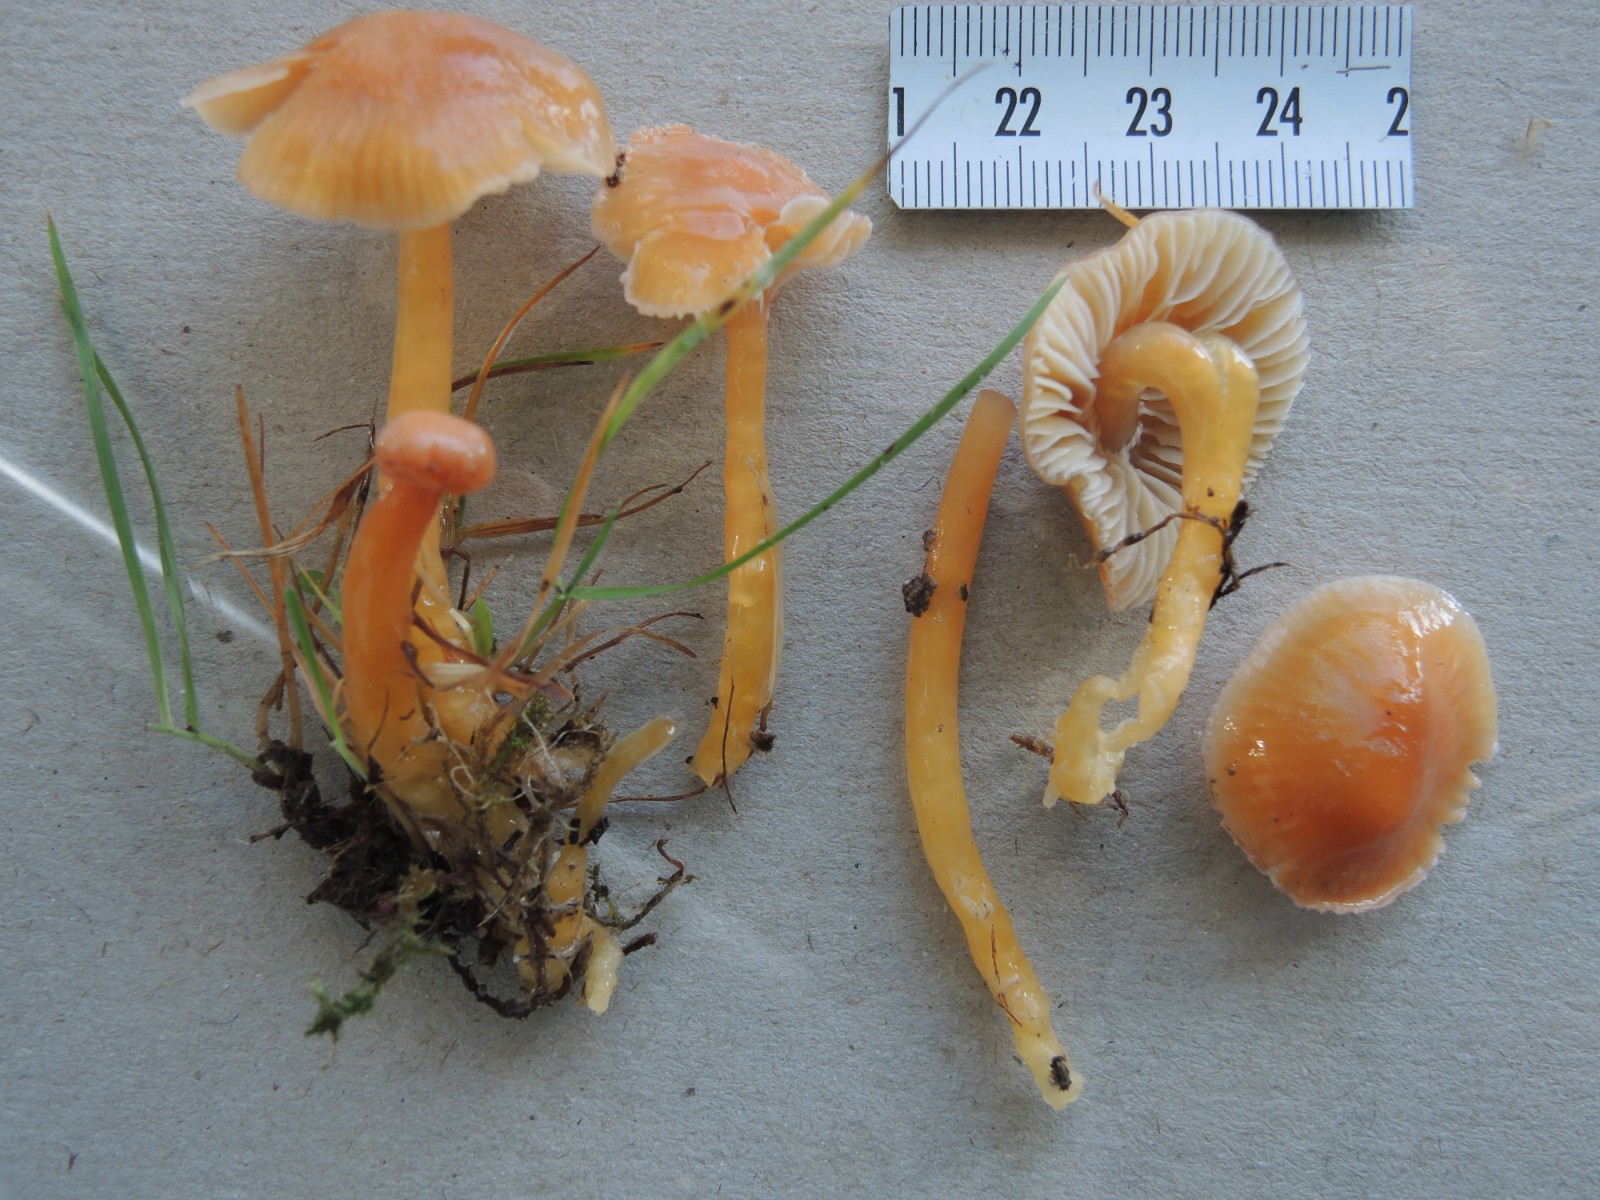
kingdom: Fungi
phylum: Basidiomycota
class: Agaricomycetes
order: Agaricales
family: Hygrophoraceae
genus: Gliophorus
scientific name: Gliophorus laetus
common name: brusk-vokshat
